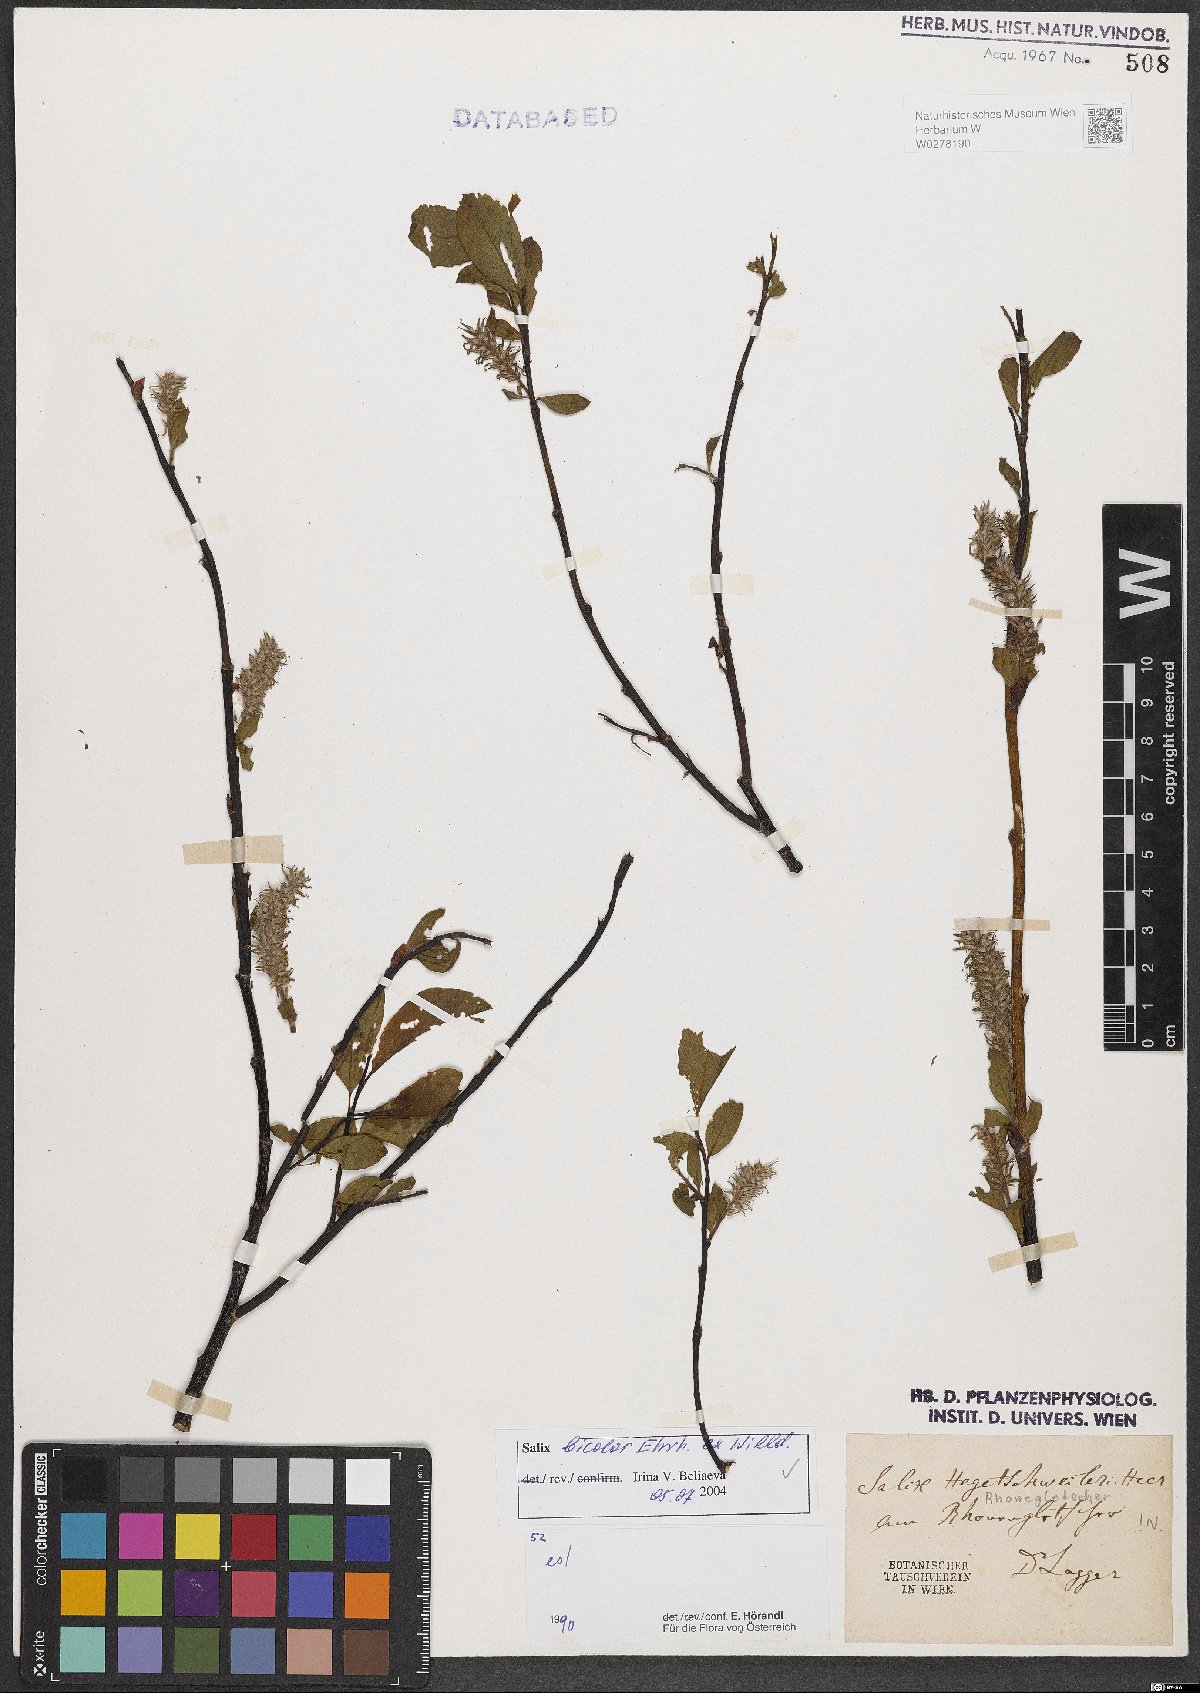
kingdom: Plantae
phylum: Tracheophyta
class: Magnoliopsida
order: Malpighiales
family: Salicaceae
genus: Salix
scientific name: Salix bicolor
